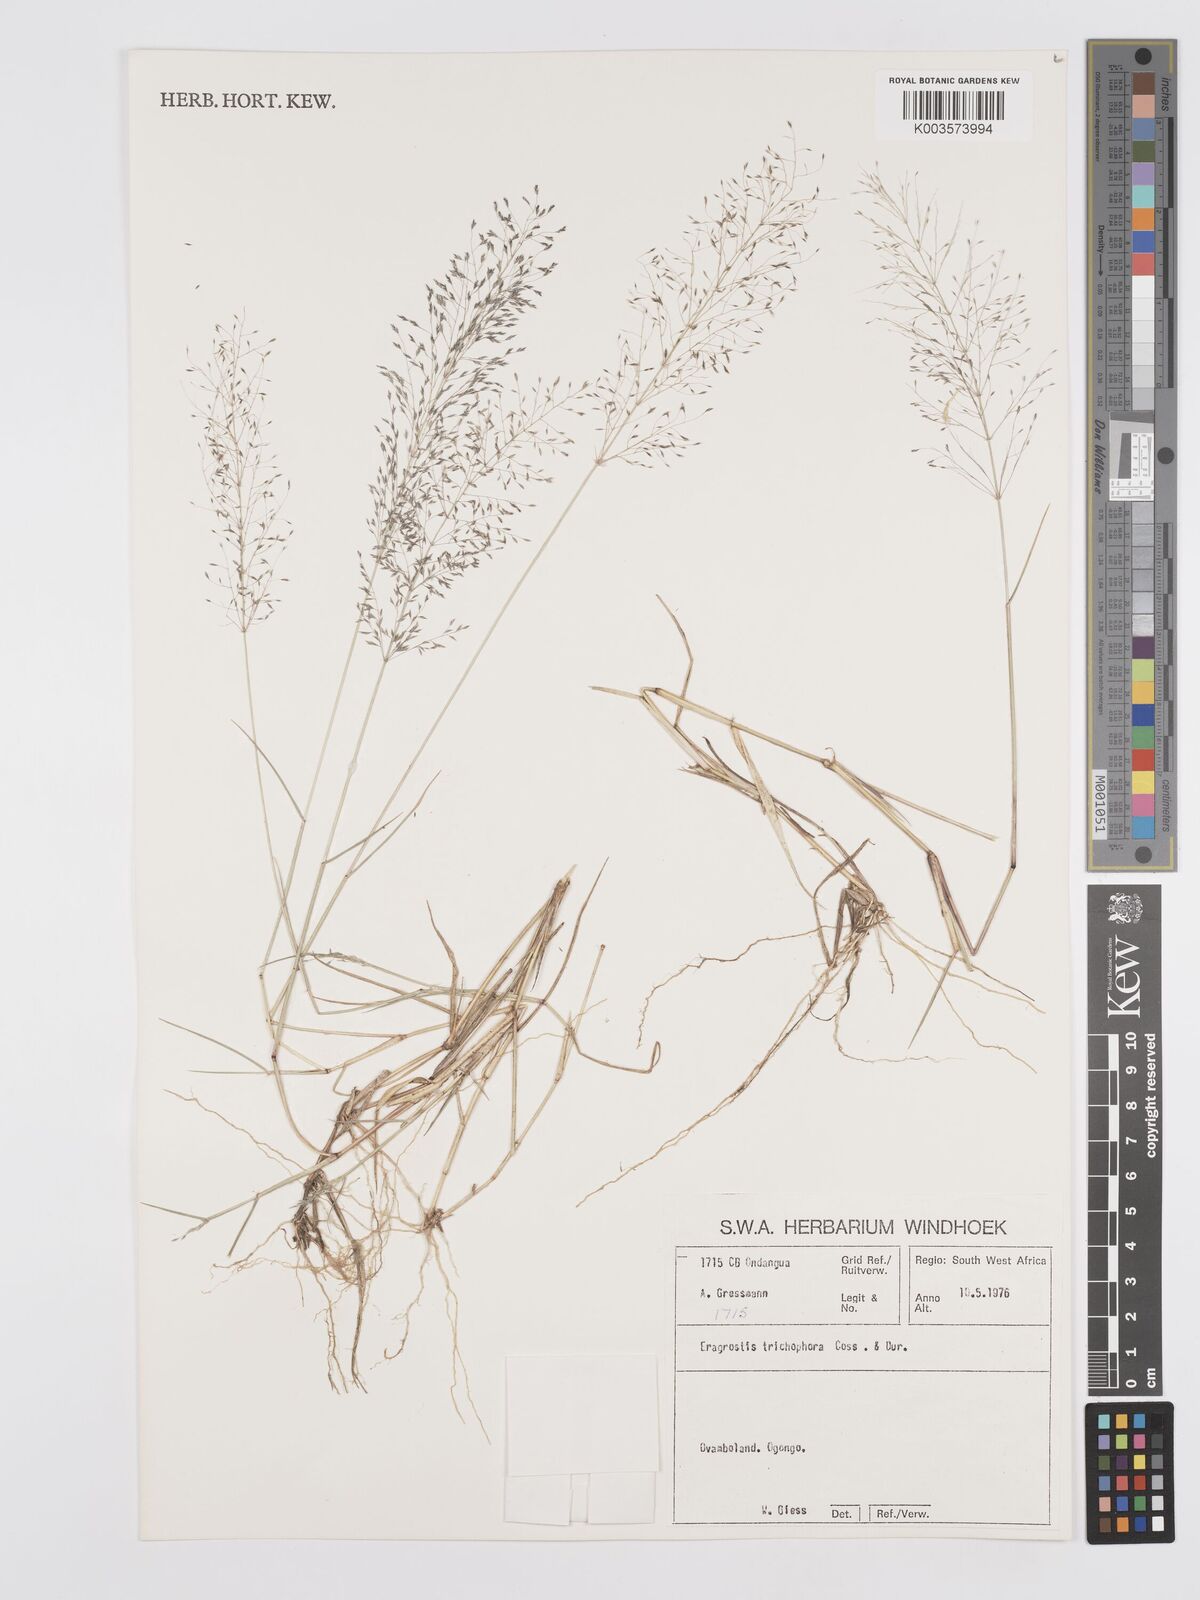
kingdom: Plantae
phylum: Tracheophyta
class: Liliopsida
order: Poales
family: Poaceae
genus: Eragrostis
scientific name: Eragrostis cylindriflora
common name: Cylinderflower lovegrass
